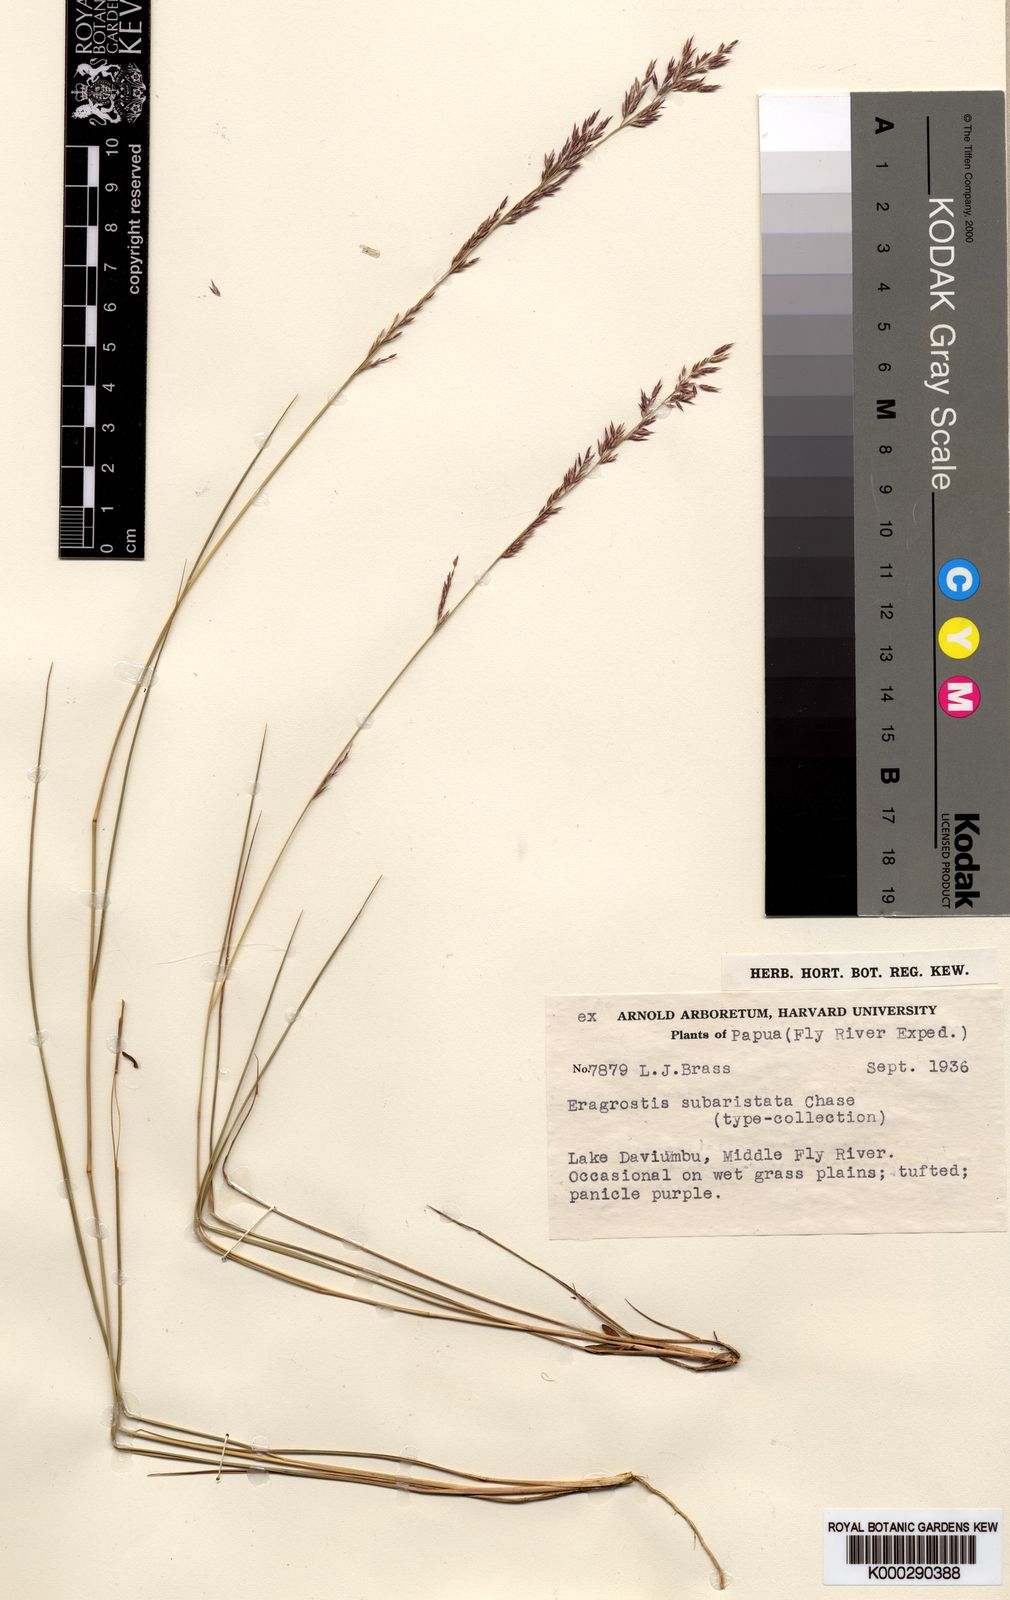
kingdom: Plantae
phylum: Tracheophyta
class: Liliopsida
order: Poales
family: Poaceae
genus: Eragrostis
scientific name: Eragrostis lasioclada
